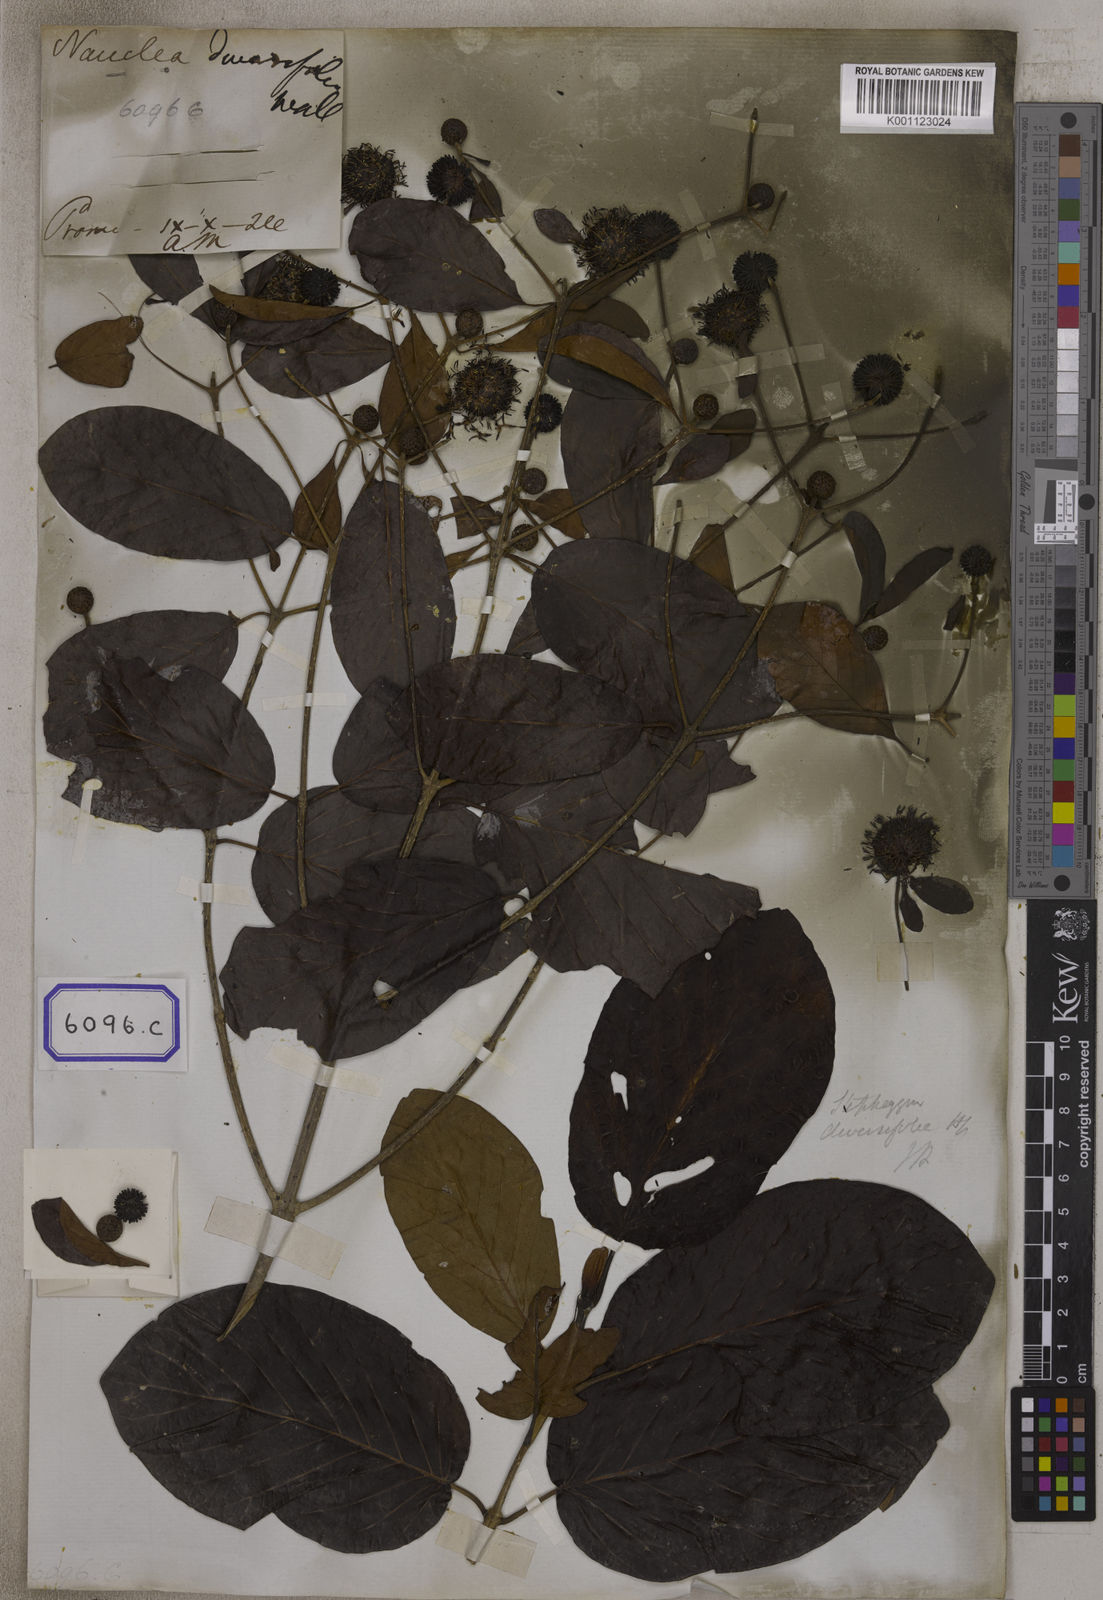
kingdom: Plantae
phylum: Tracheophyta
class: Magnoliopsida
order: Gentianales
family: Rubiaceae
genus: Nauclea
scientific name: Nauclea
